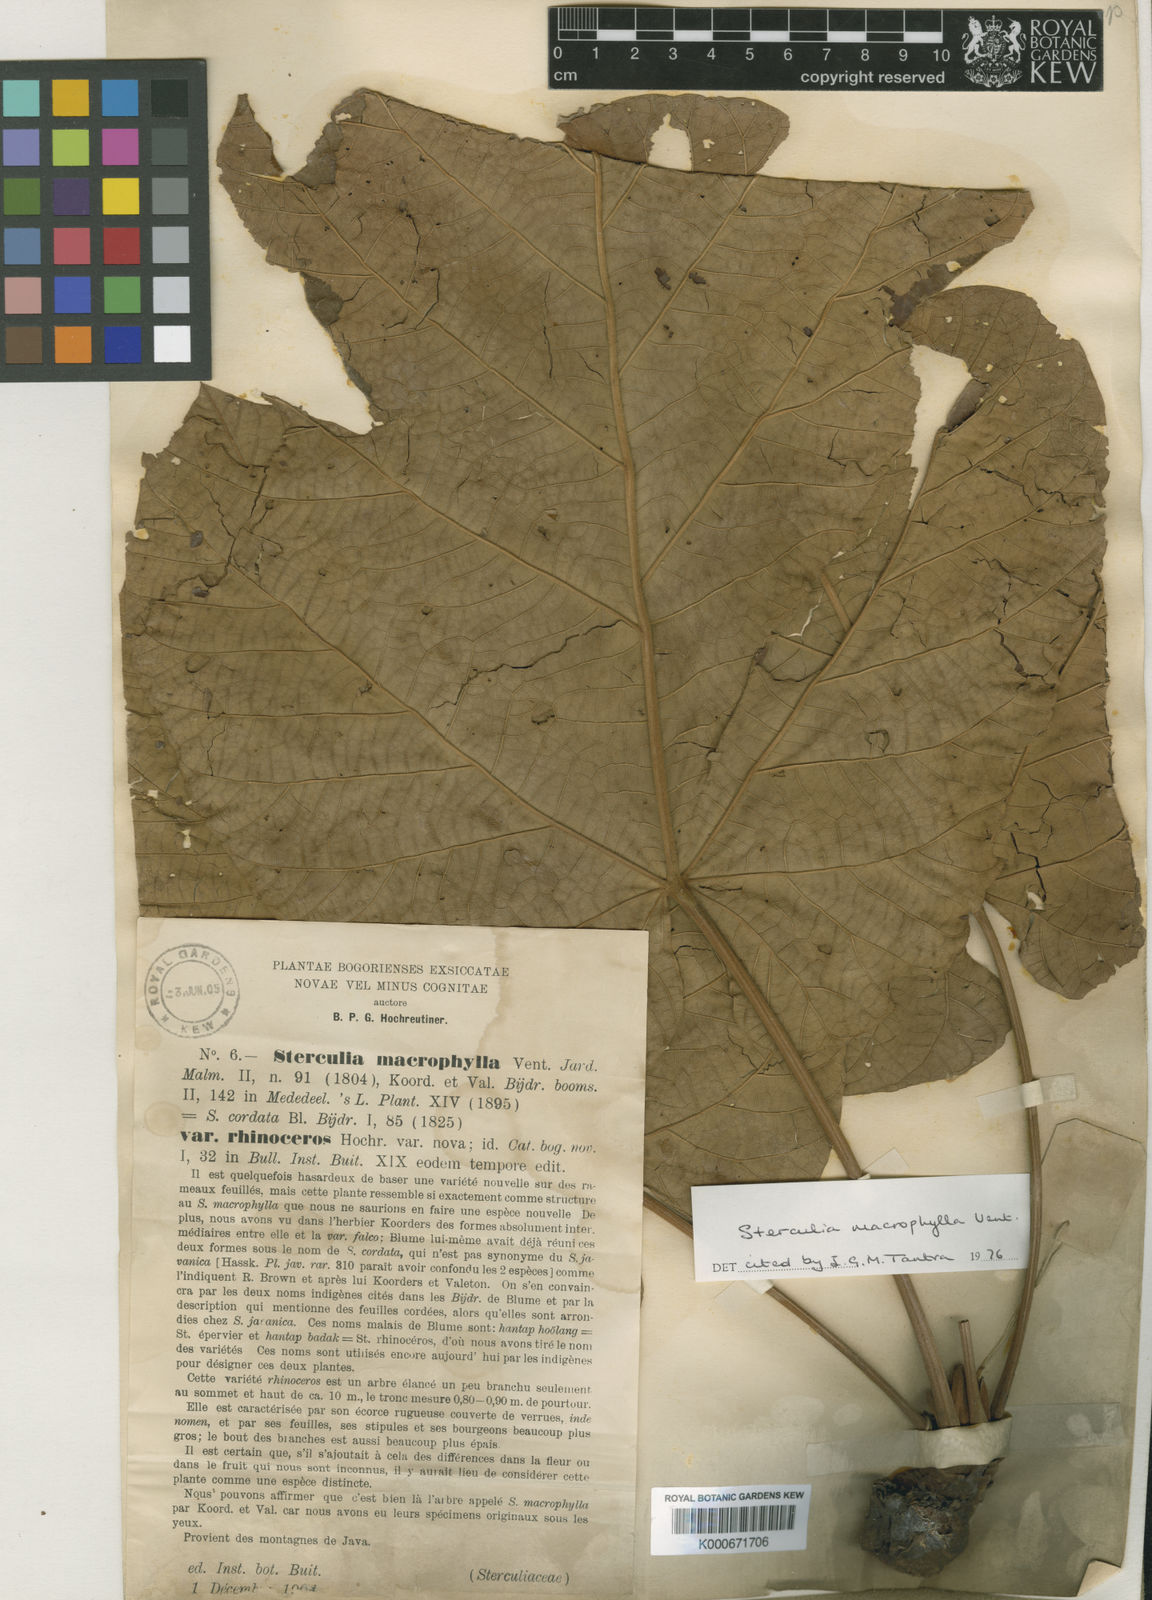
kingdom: Plantae
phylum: Tracheophyta
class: Magnoliopsida
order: Malvales
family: Malvaceae
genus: Sterculia
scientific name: Sterculia macrophylla
